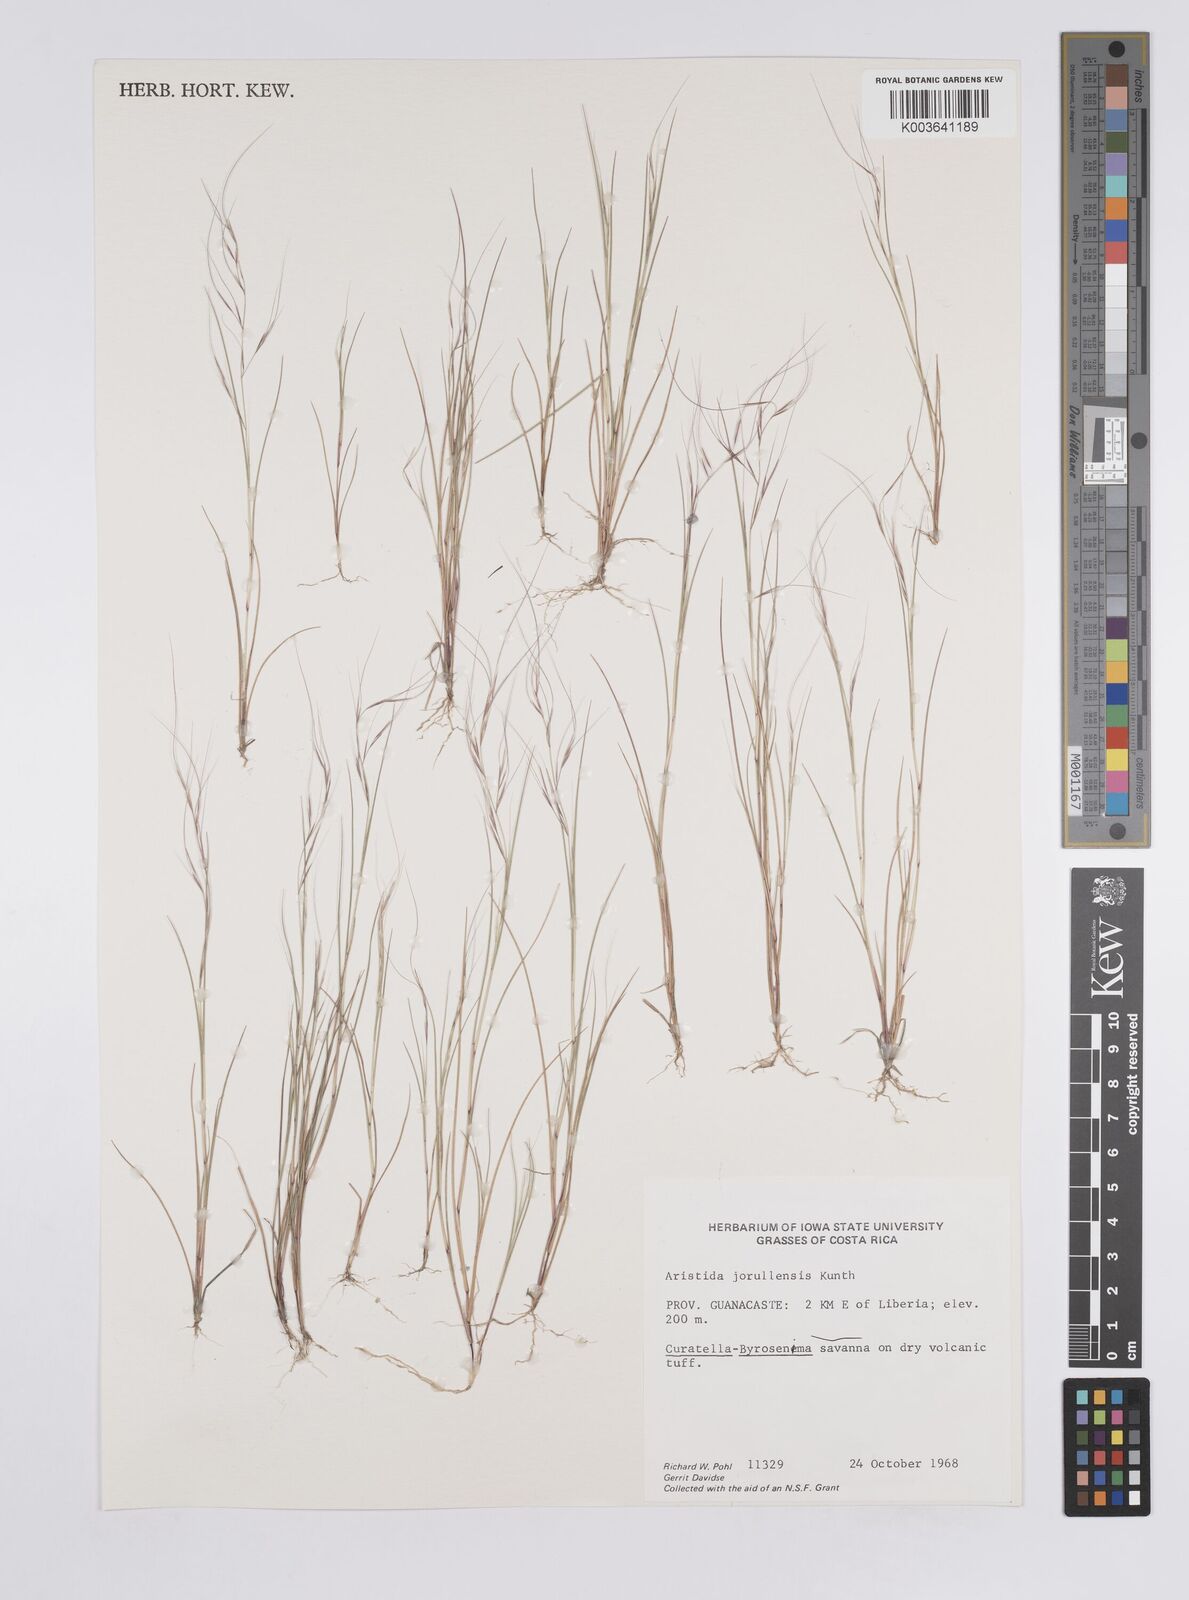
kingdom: Plantae
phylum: Tracheophyta
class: Liliopsida
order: Poales
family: Poaceae
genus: Aristida
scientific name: Aristida jorullensis
